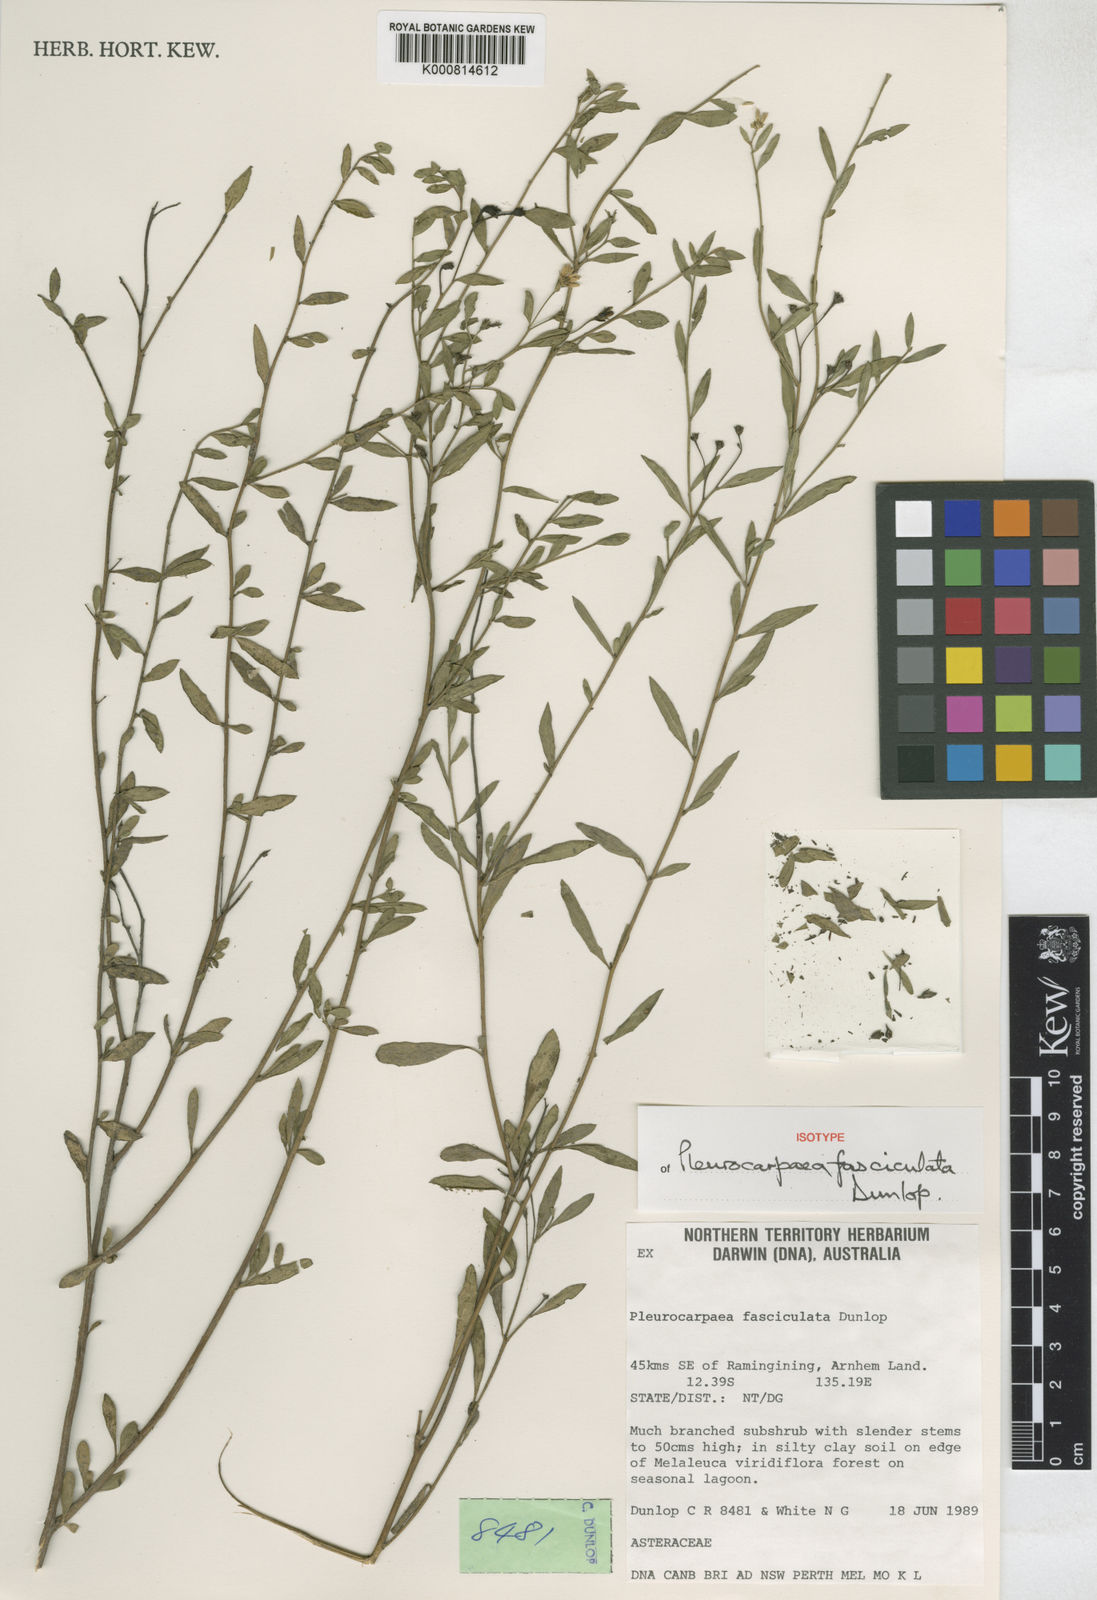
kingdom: Plantae
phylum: Tracheophyta
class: Magnoliopsida
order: Asterales
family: Asteraceae
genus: Pleurocarpaea
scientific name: Pleurocarpaea fasciculata
